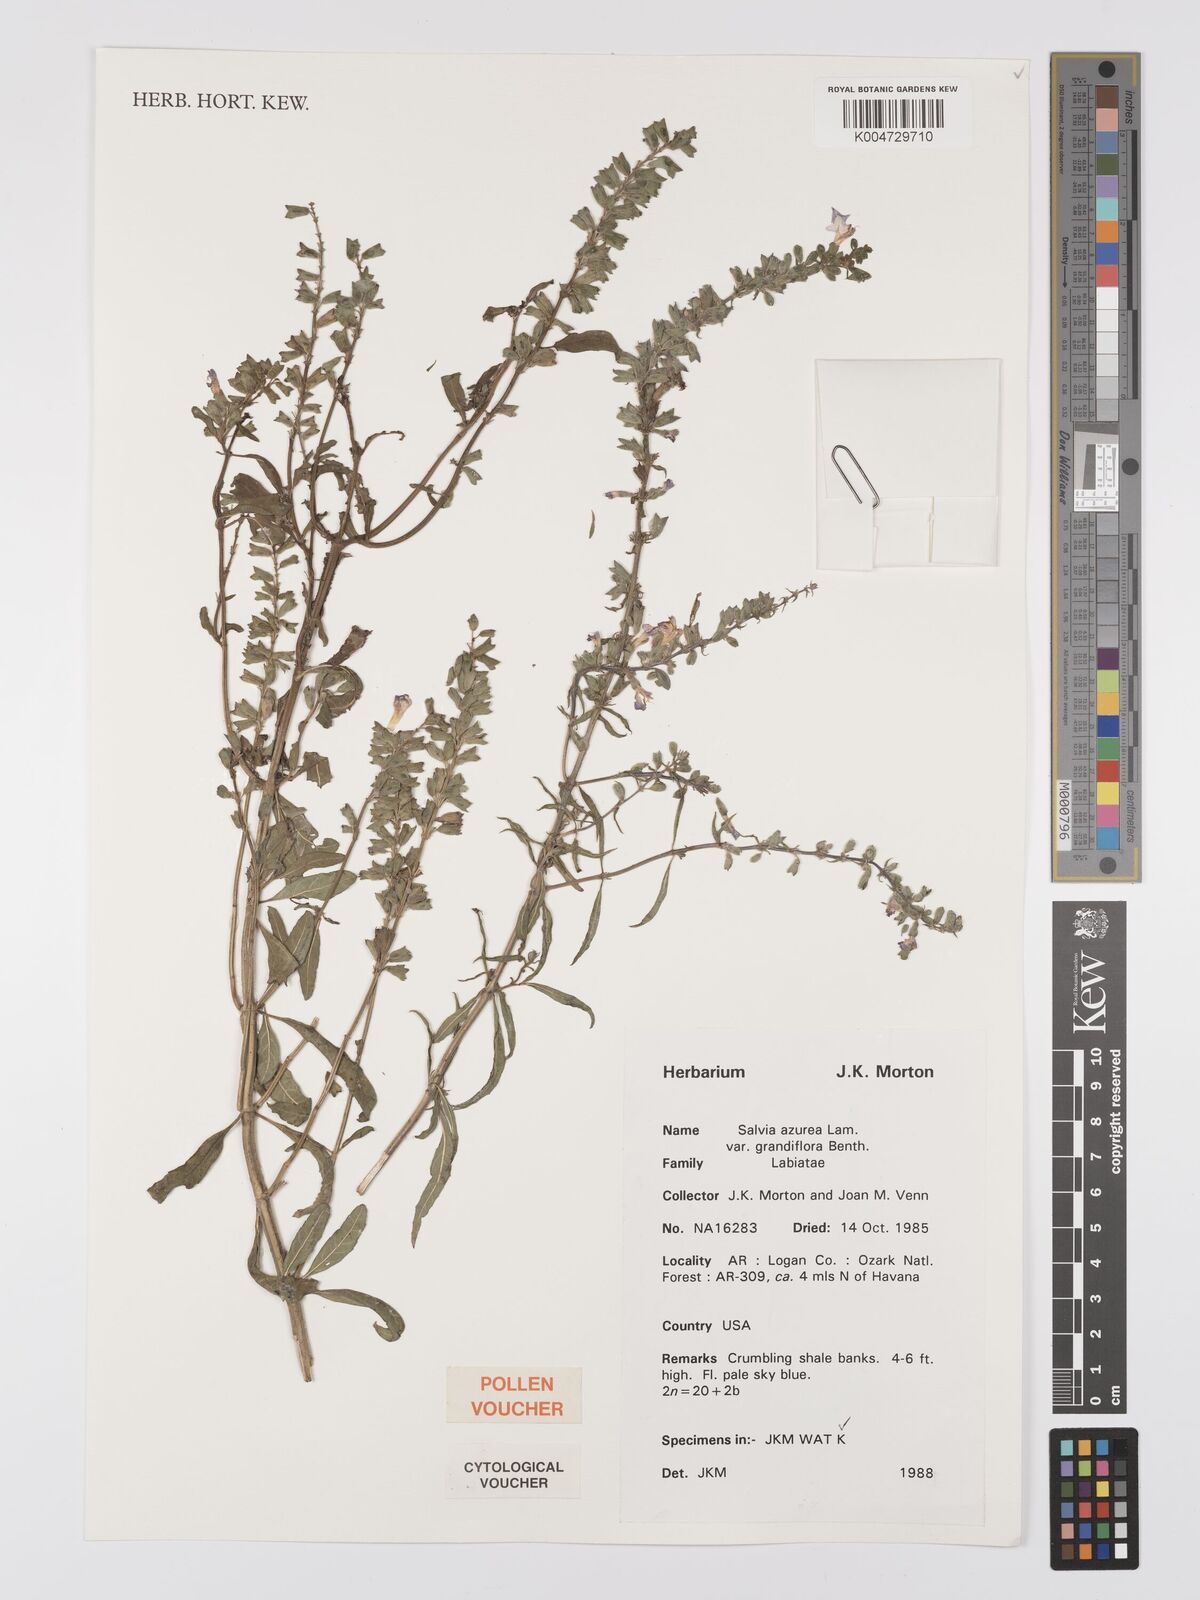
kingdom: Plantae
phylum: Tracheophyta
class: Magnoliopsida
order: Lamiales
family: Lamiaceae
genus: Salvia
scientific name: Salvia azurea
